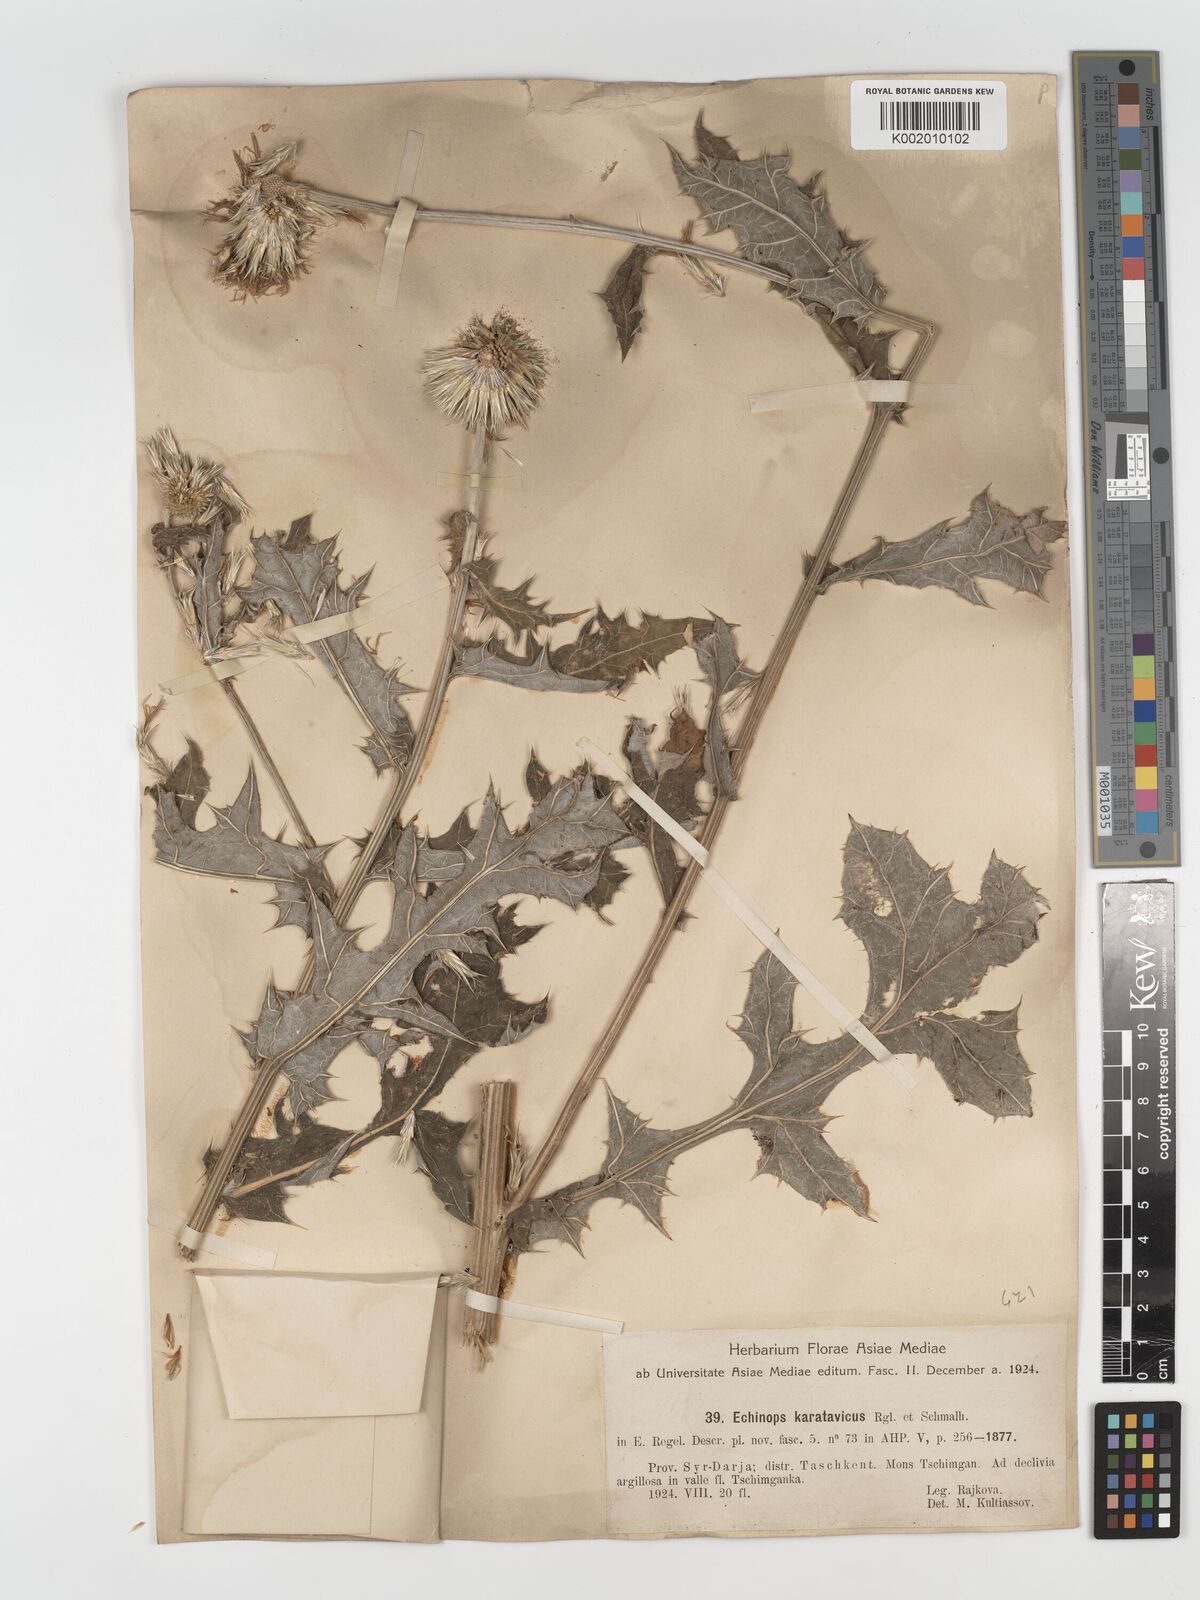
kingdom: Plantae
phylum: Tracheophyta
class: Magnoliopsida
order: Asterales
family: Asteraceae
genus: Echinops
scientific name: Echinops karatavicus
